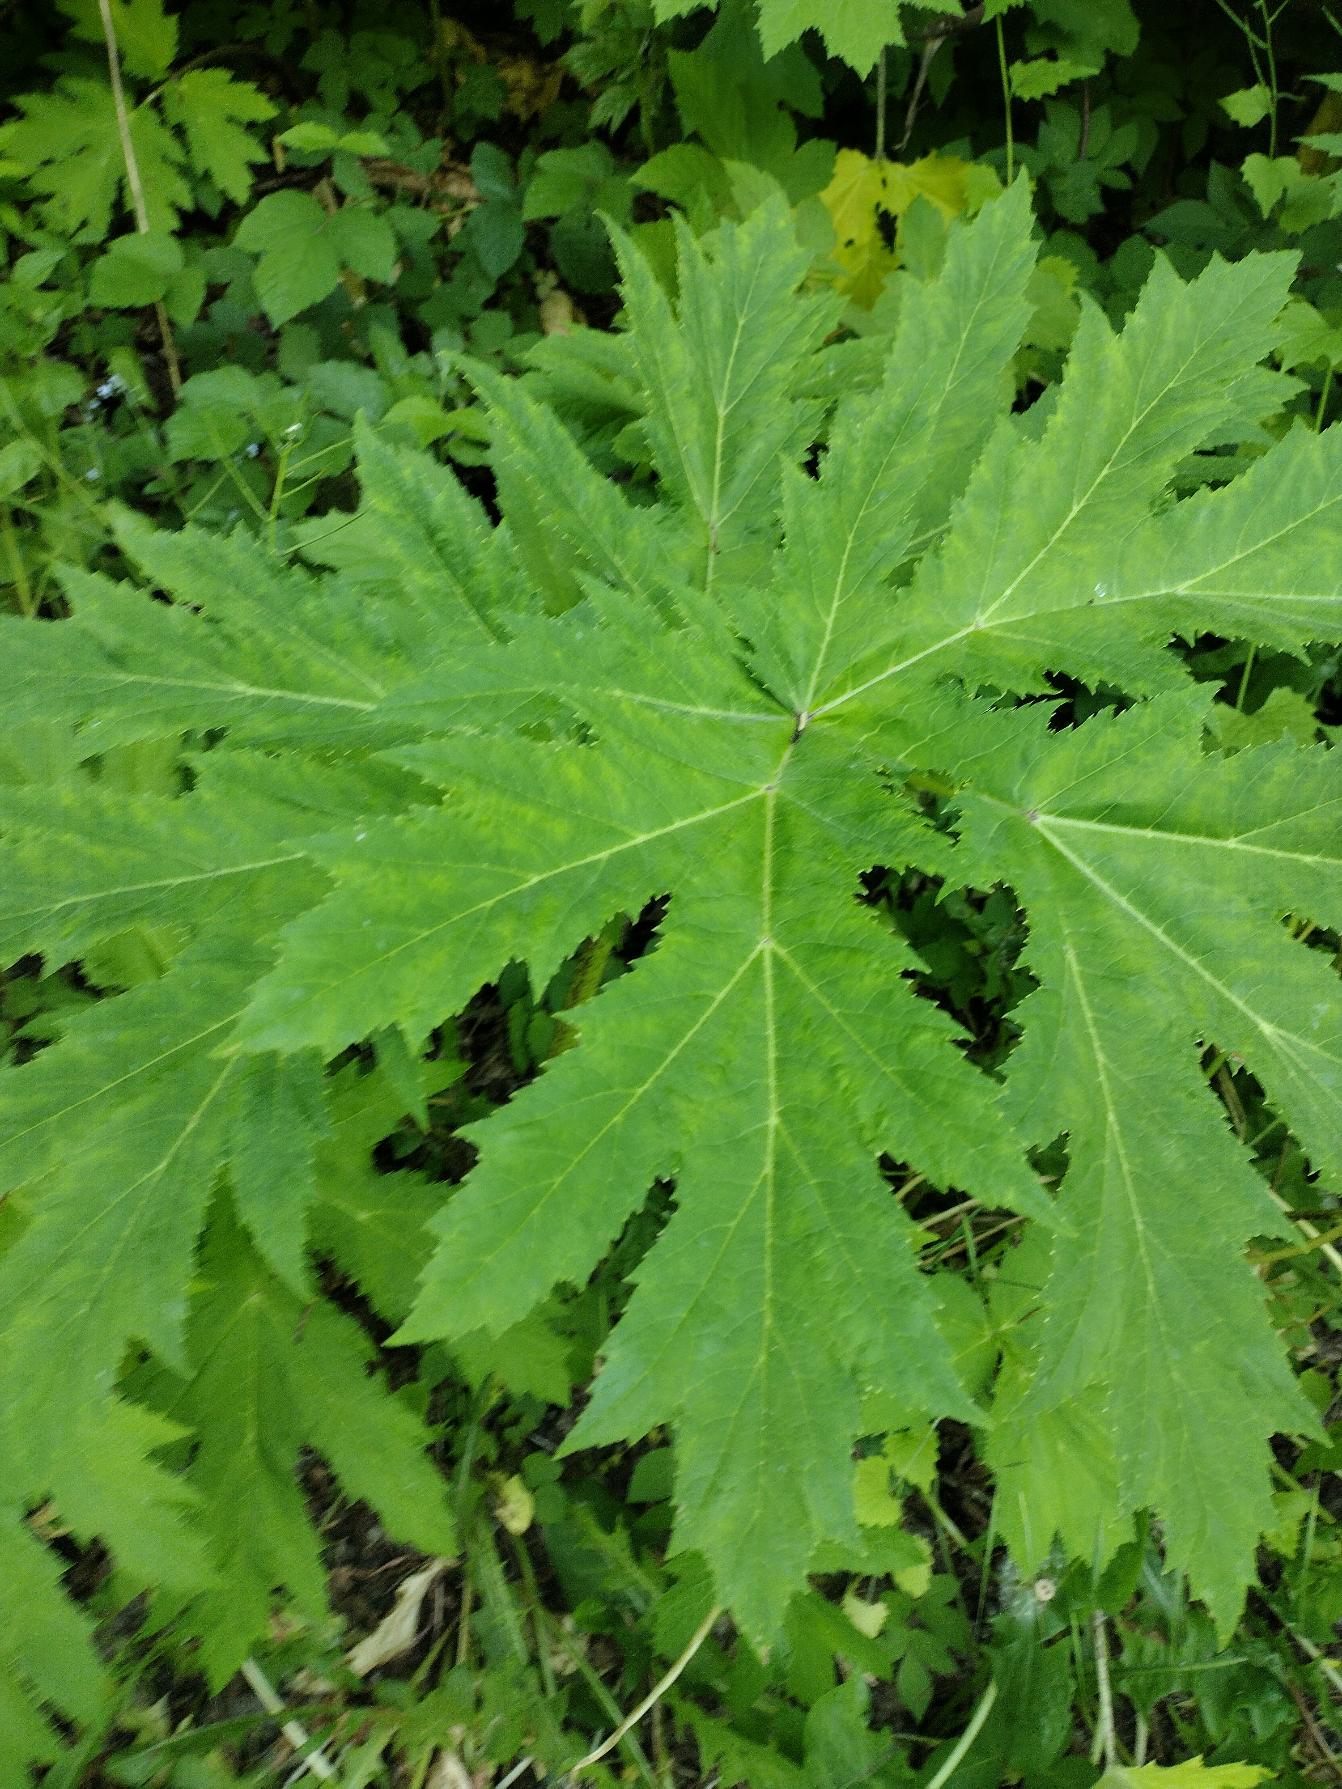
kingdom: Plantae
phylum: Tracheophyta
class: Magnoliopsida
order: Apiales
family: Apiaceae
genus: Heracleum
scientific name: Heracleum mantegazzianum
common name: Kæmpe-bjørneklo
